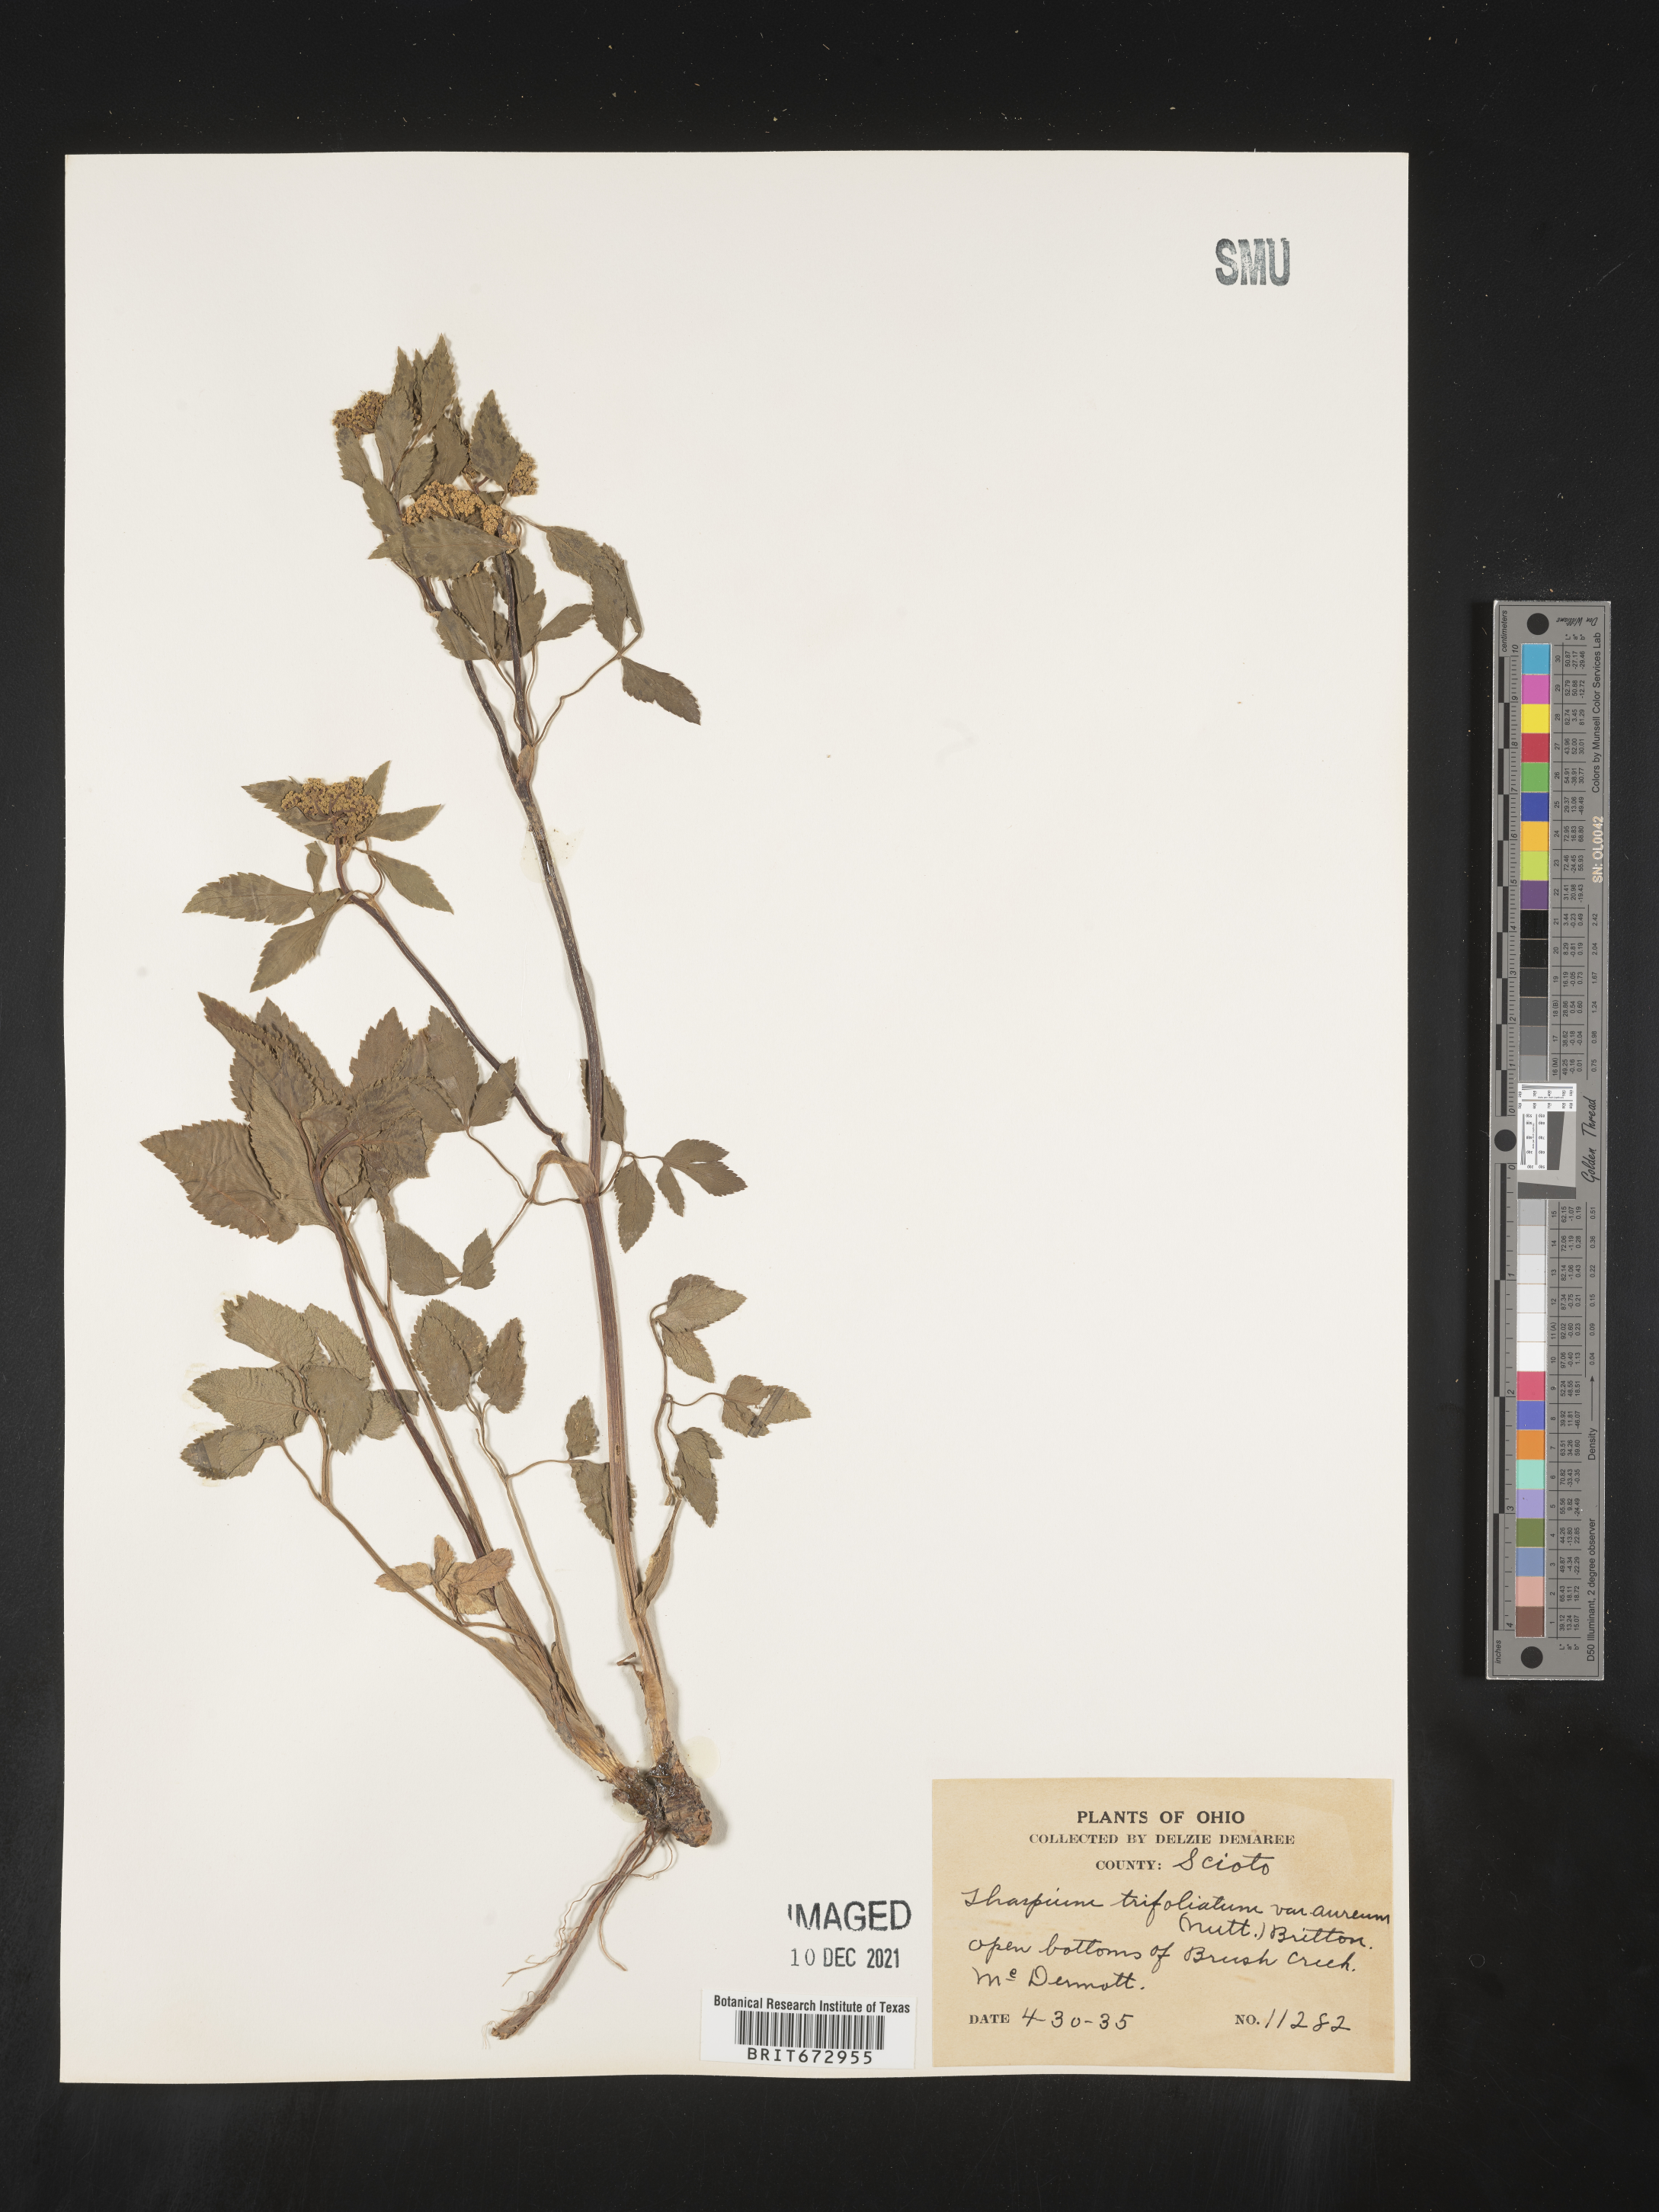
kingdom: Plantae
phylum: Tracheophyta
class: Magnoliopsida
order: Apiales
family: Apiaceae
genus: Thaspium
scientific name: Thaspium
